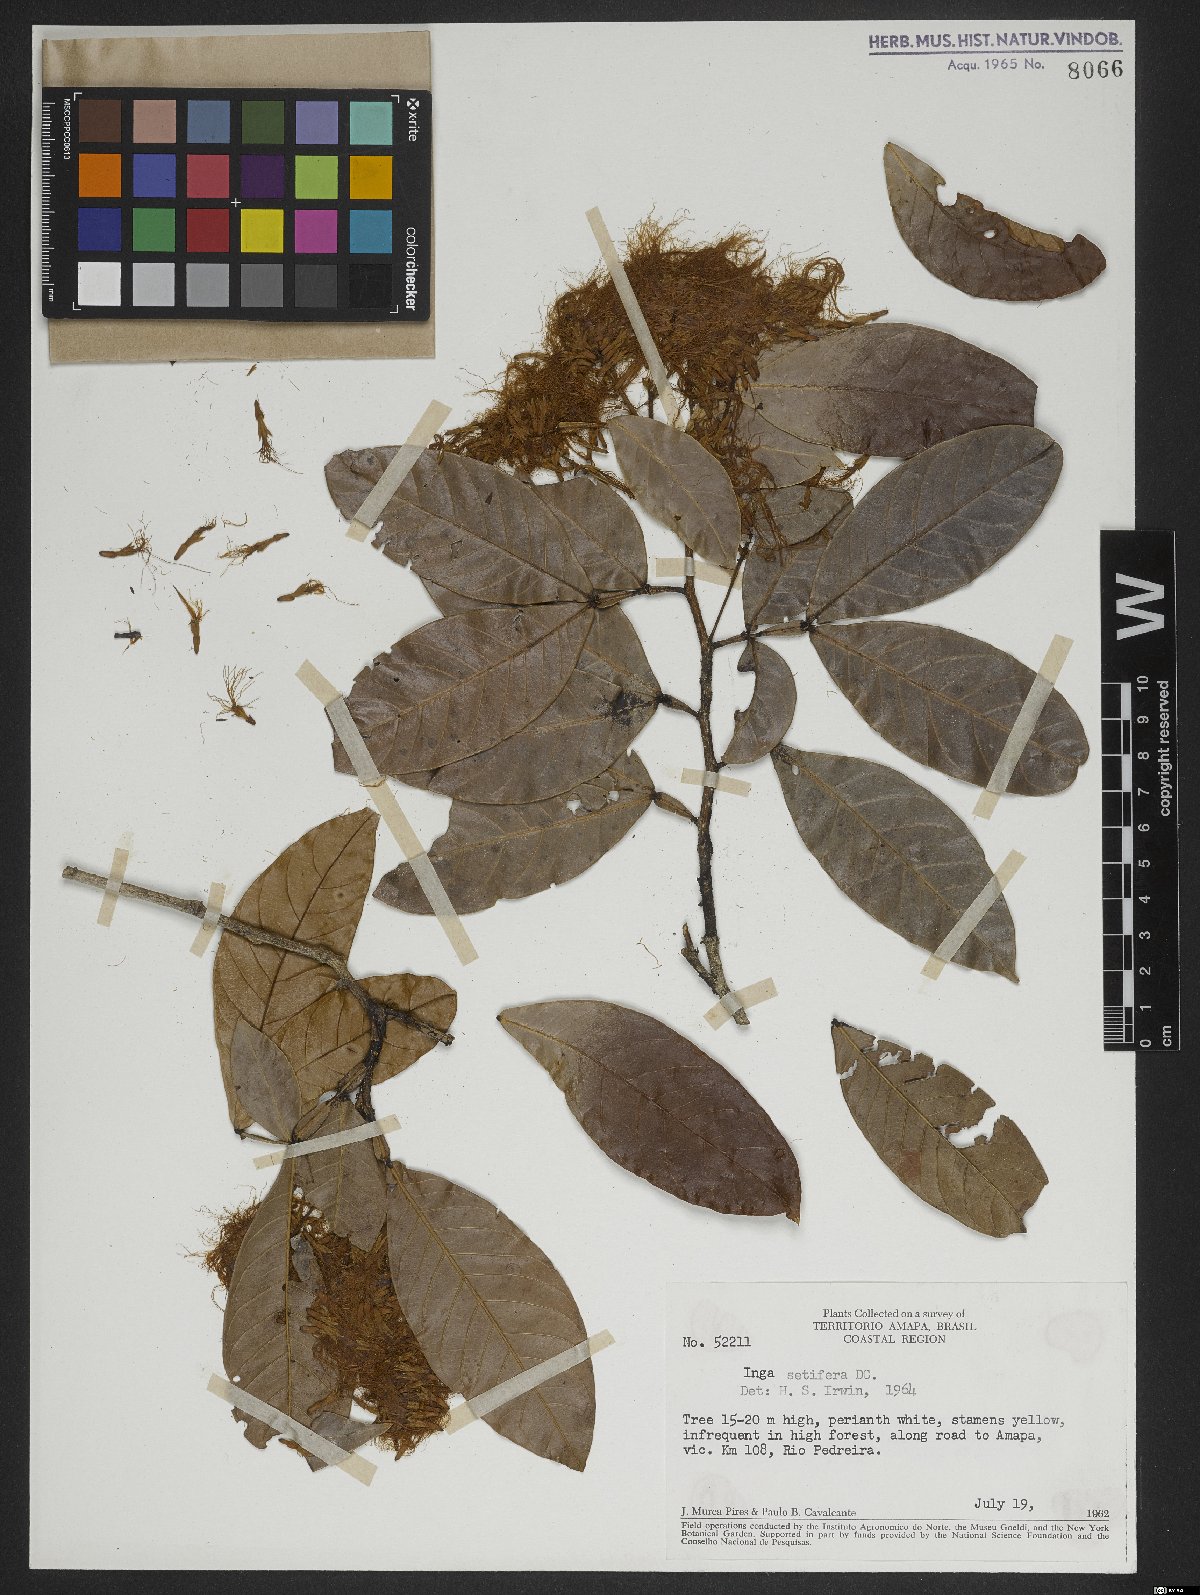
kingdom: Plantae
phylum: Tracheophyta
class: Magnoliopsida
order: Fabales
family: Fabaceae
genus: Inga
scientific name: Inga pilosula
